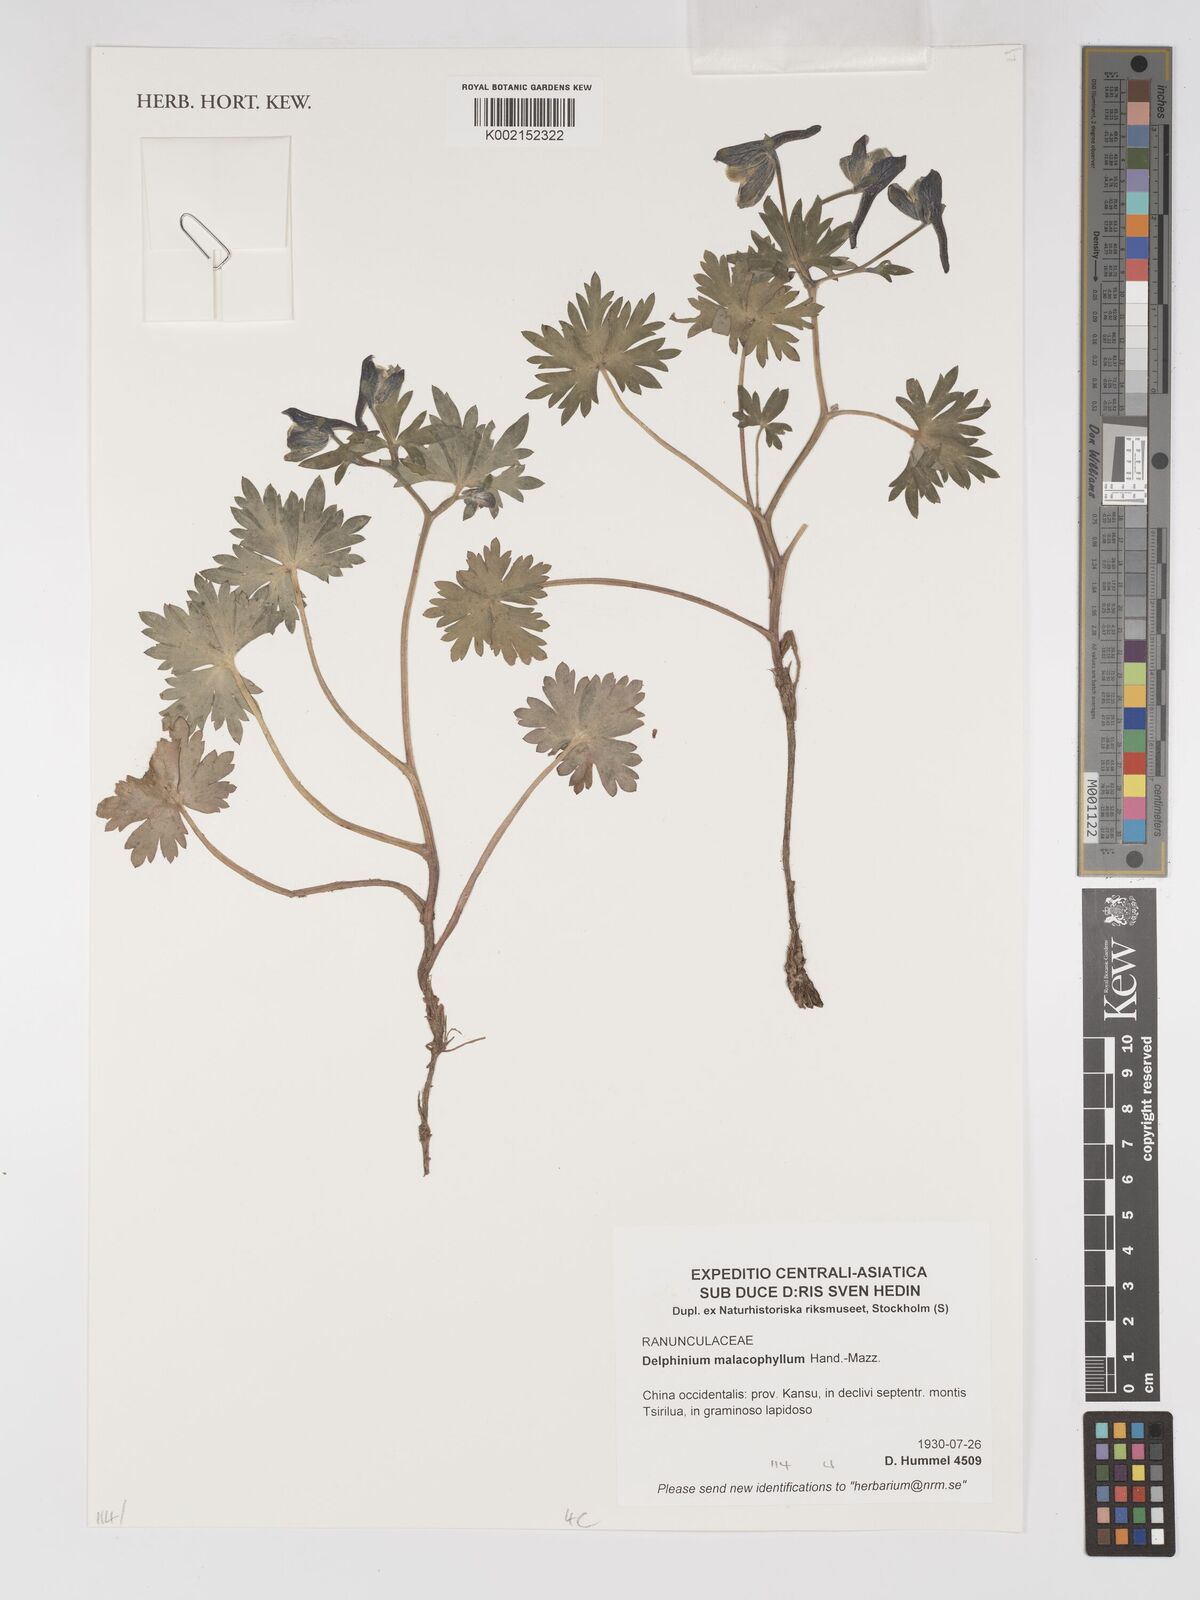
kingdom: Plantae
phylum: Tracheophyta
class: Magnoliopsida
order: Ranunculales
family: Ranunculaceae
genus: Delphinium
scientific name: Delphinium malacophyllum
